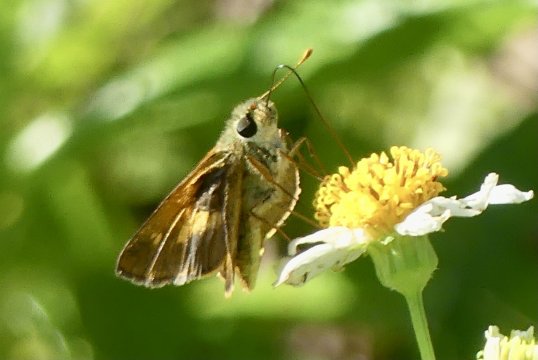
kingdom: Animalia
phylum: Arthropoda
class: Insecta
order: Lepidoptera
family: Hesperiidae
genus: Atalopedes
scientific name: Atalopedes mesogramma
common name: Mesogramma Skipper
